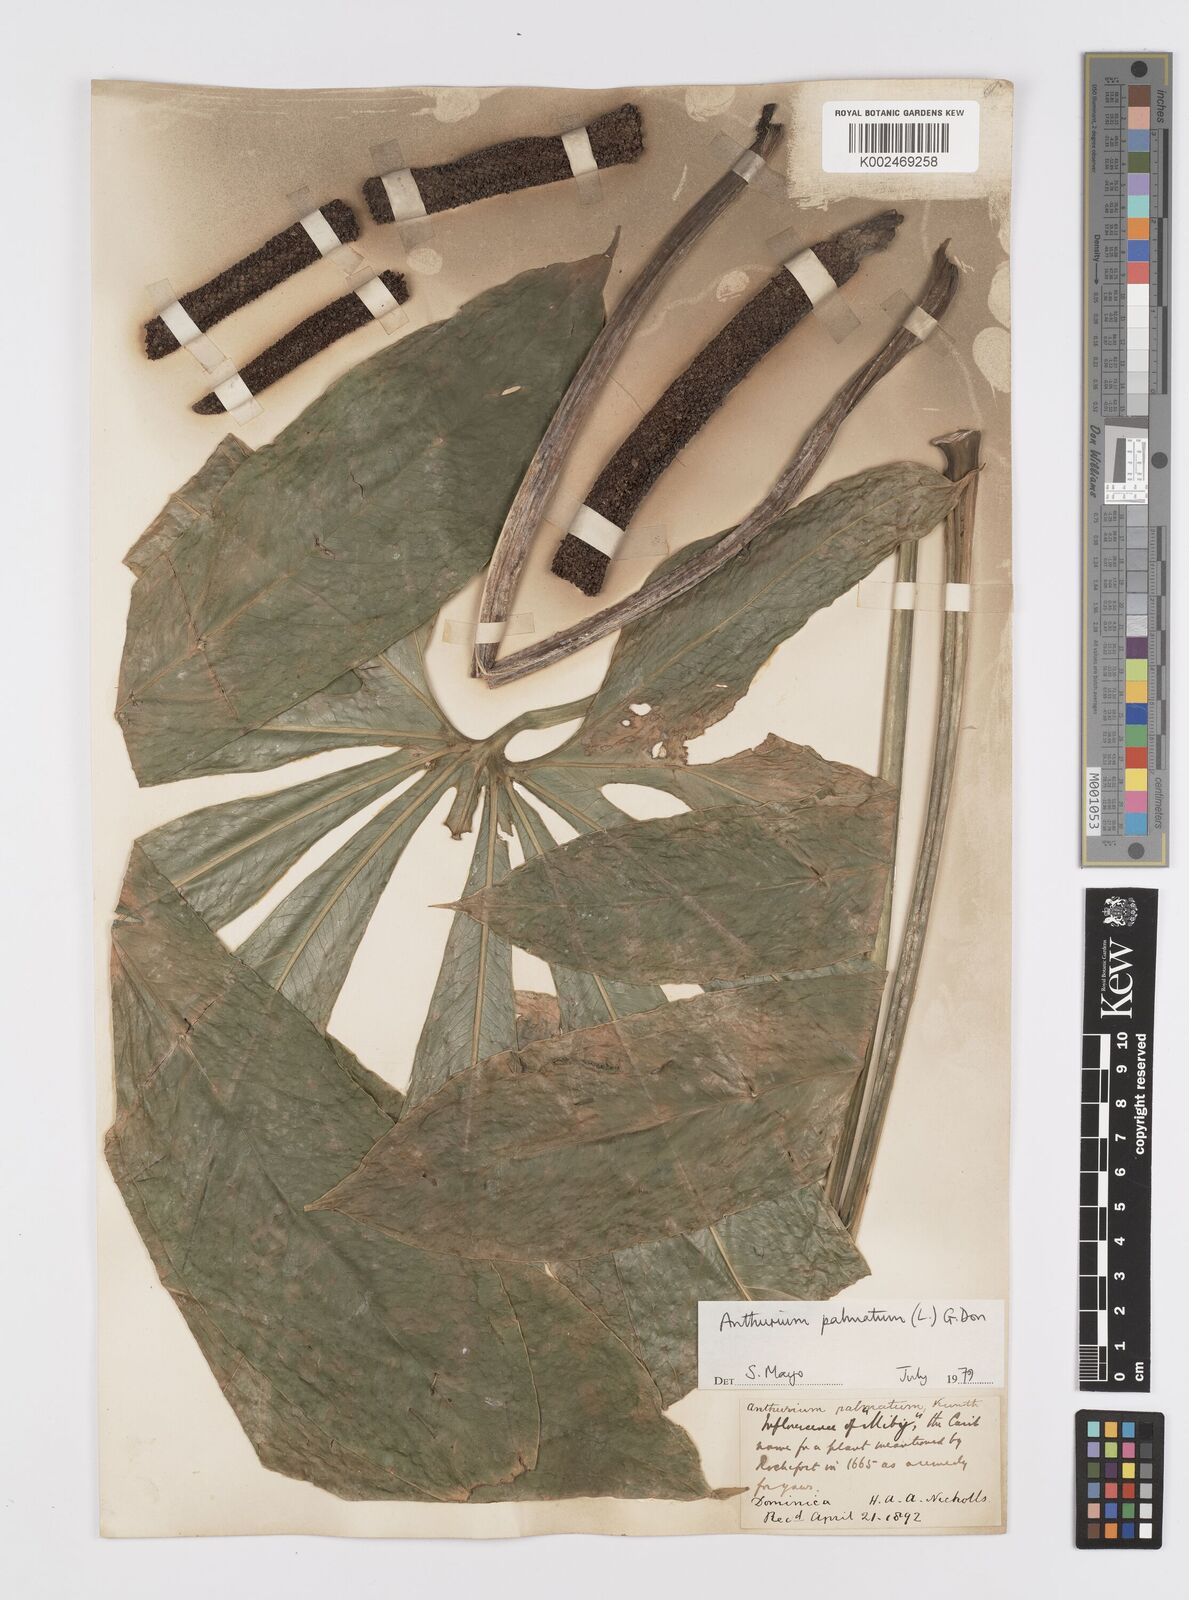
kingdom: Plantae
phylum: Tracheophyta
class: Liliopsida
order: Alismatales
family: Araceae
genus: Anthurium
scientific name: Anthurium palmatum
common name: Mibi
